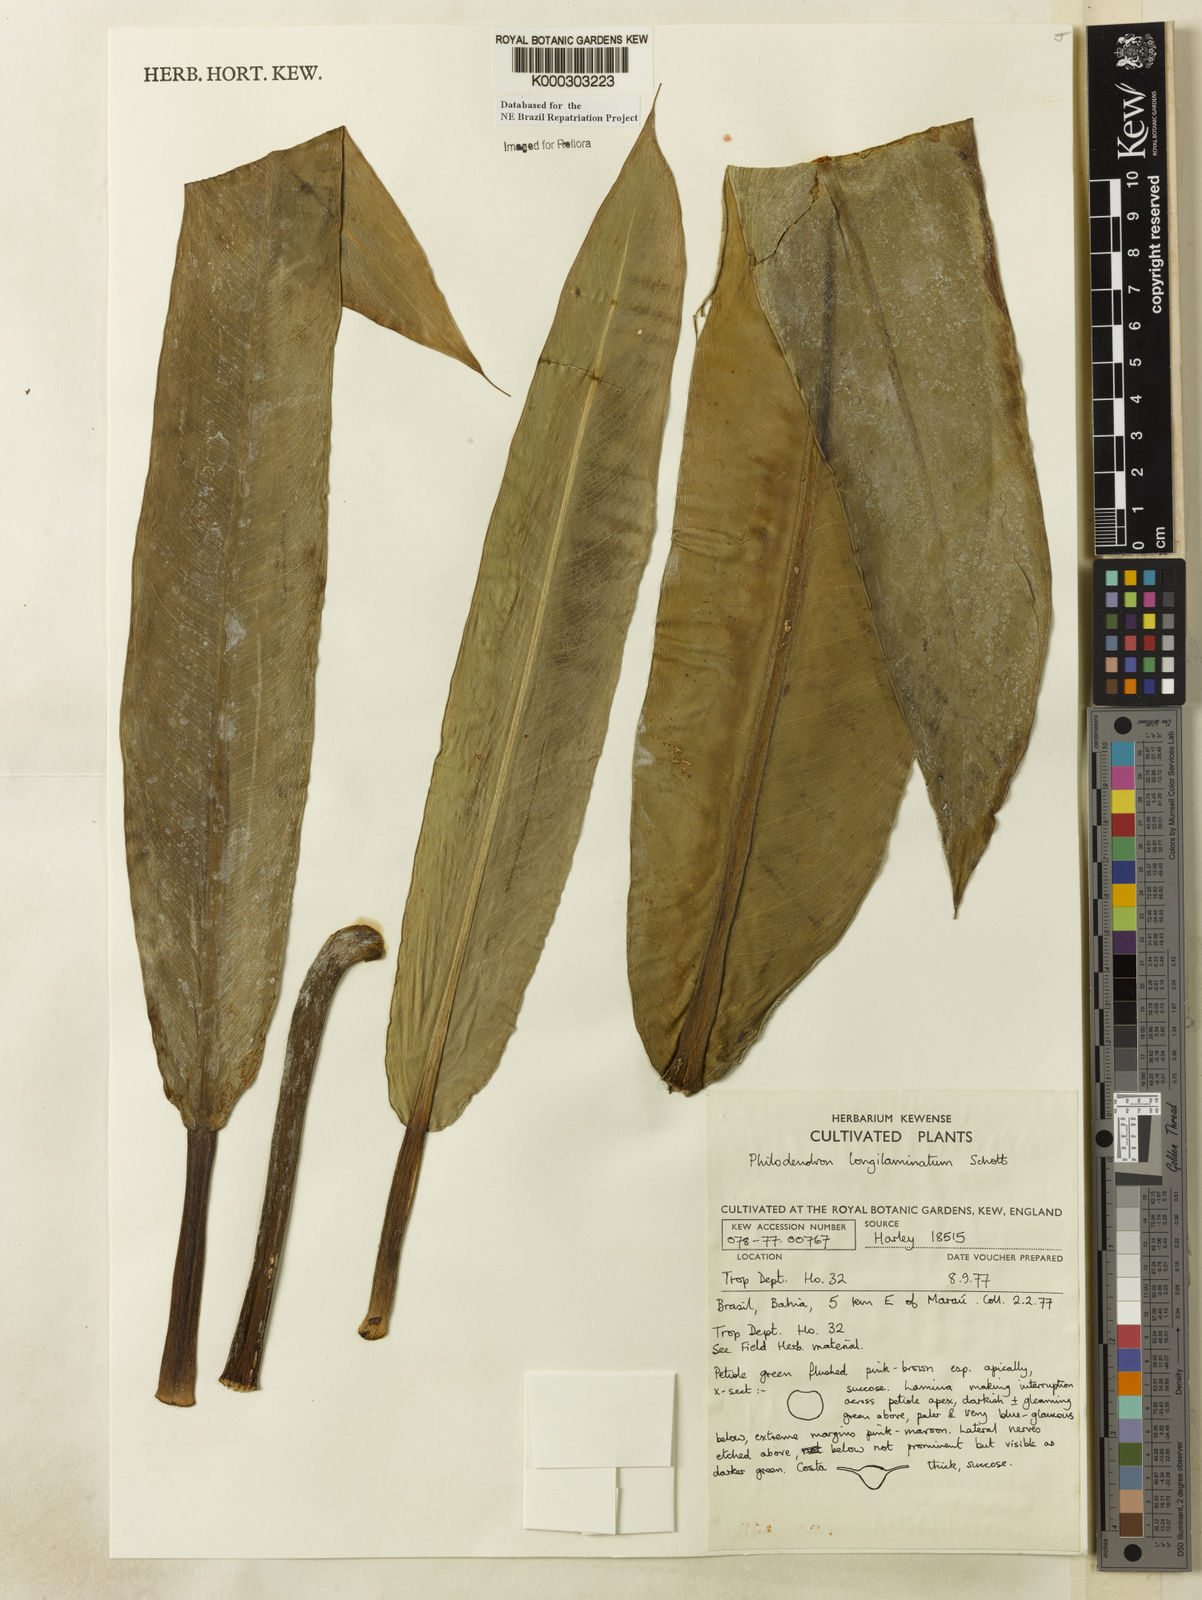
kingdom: Plantae
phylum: Tracheophyta
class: Liliopsida
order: Alismatales
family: Araceae
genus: Philodendron
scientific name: Philodendron longilaminatum
